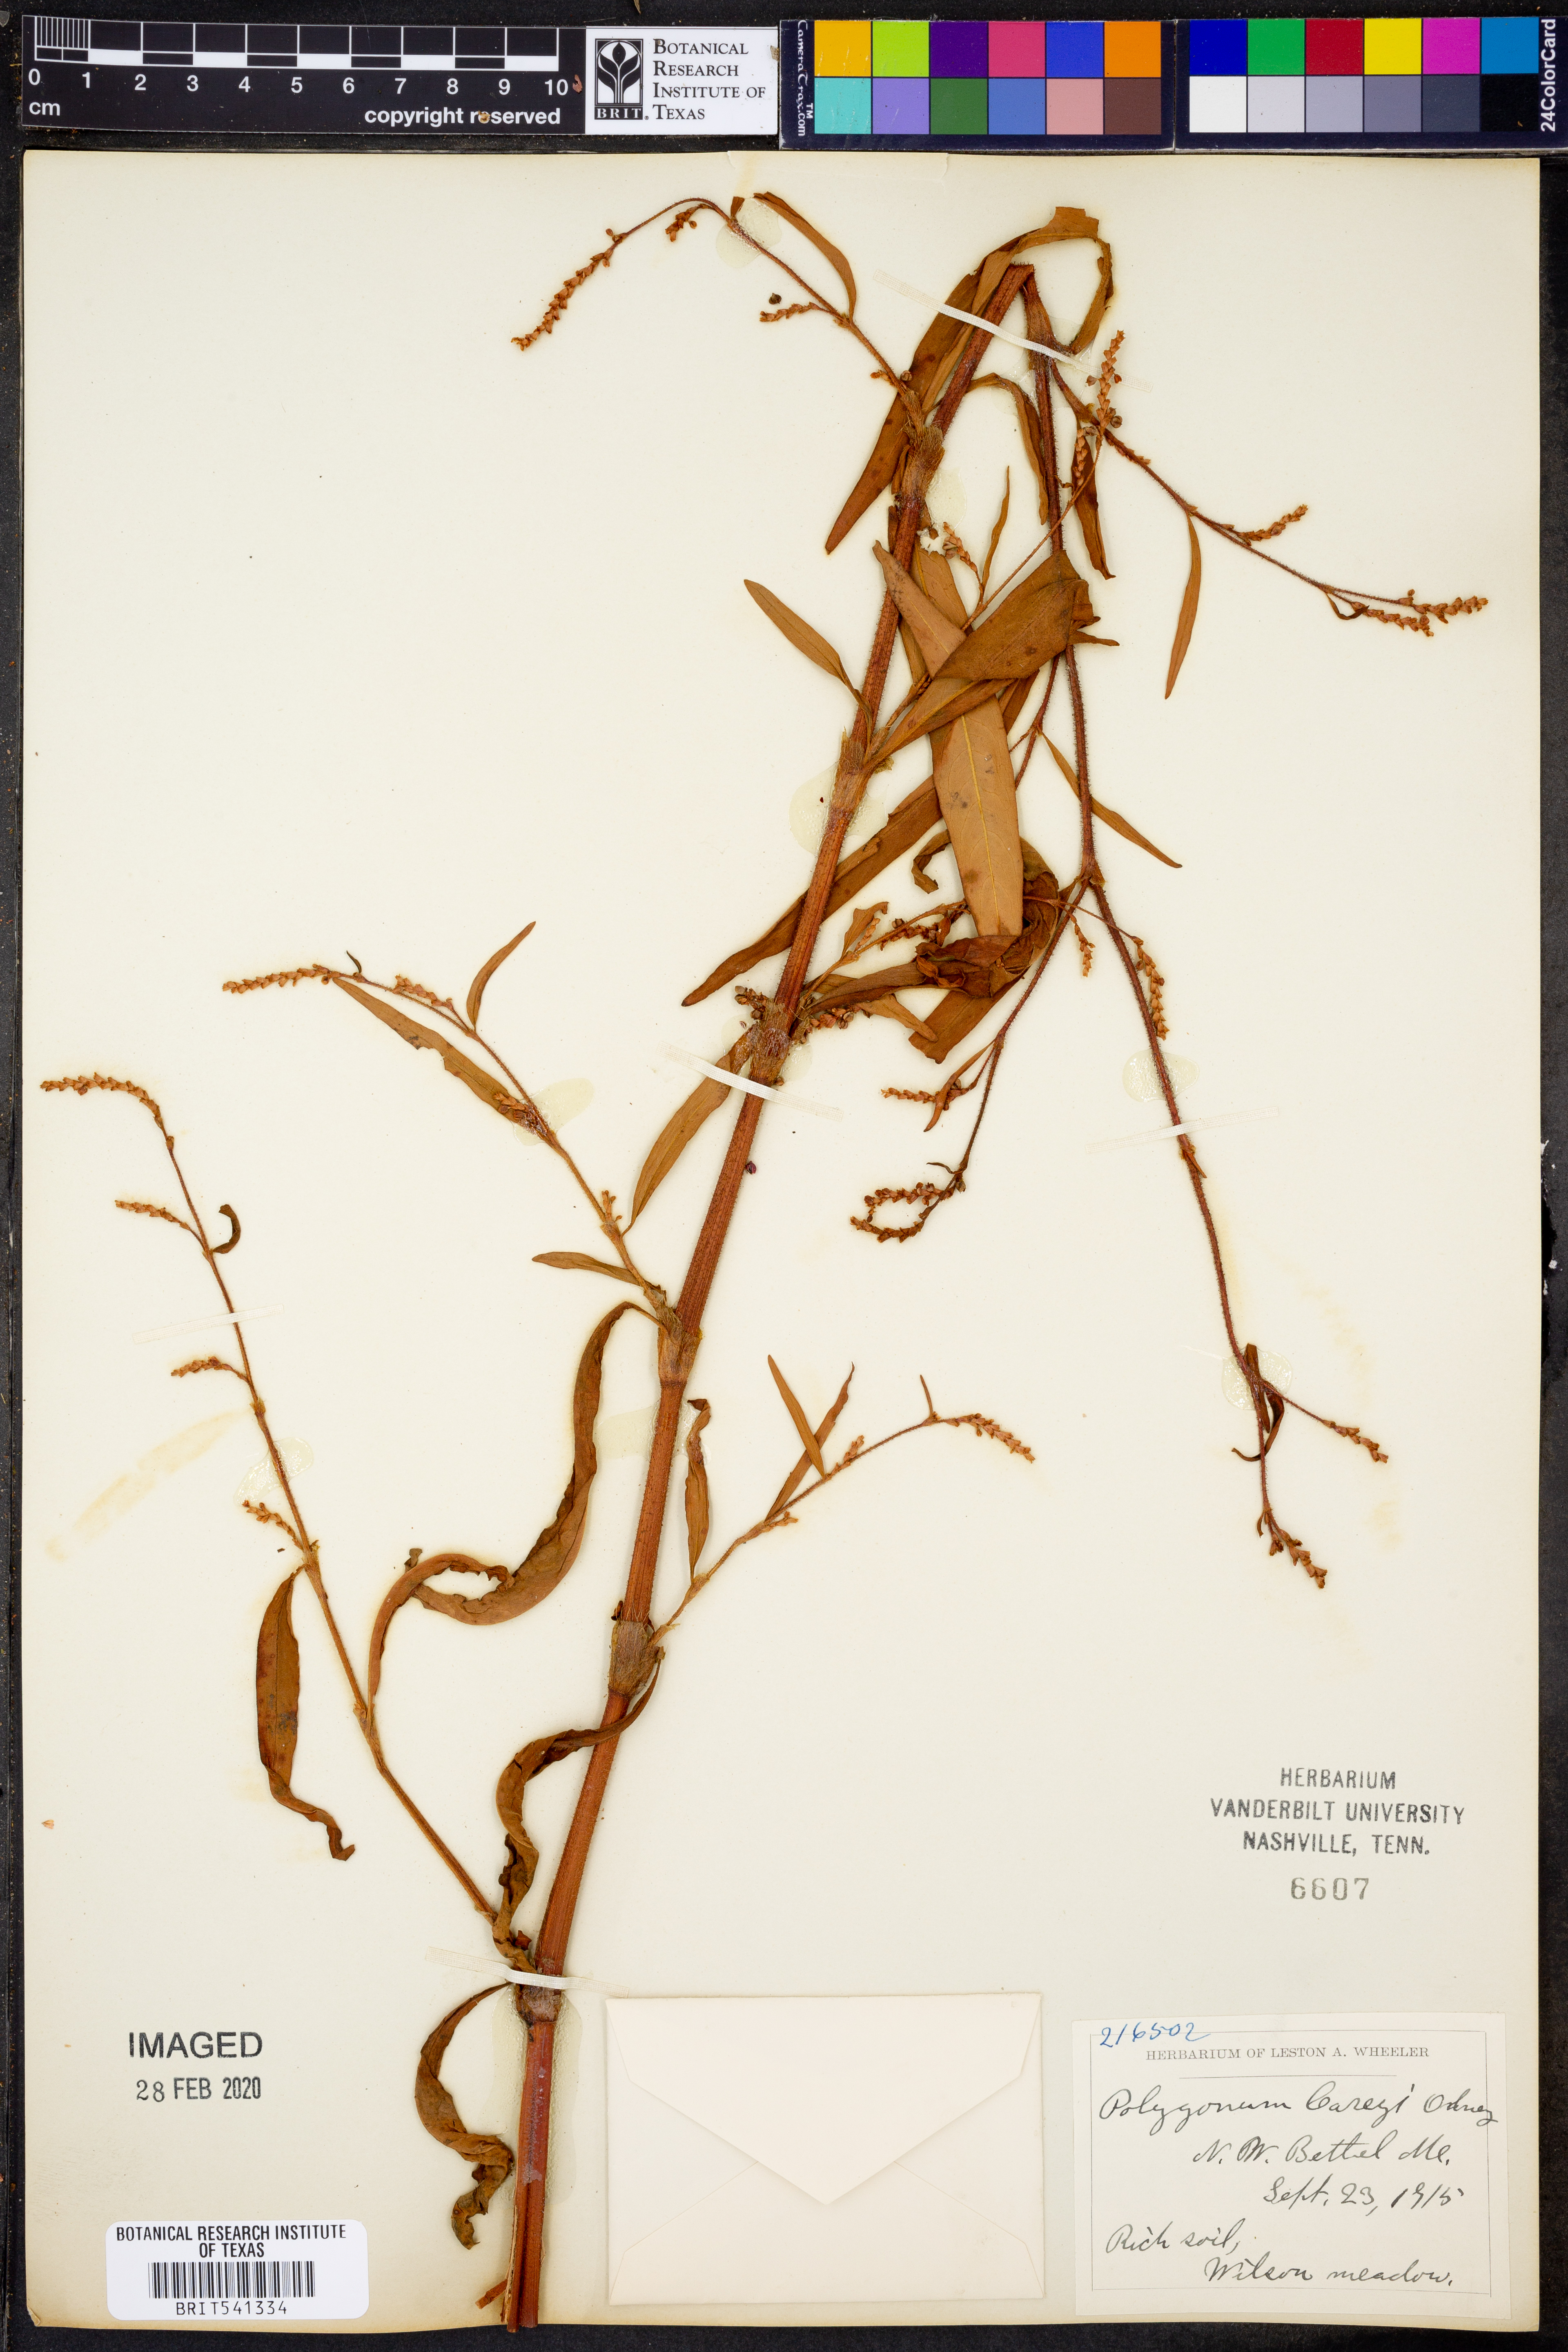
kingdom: Plantae
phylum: Tracheophyta
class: Magnoliopsida
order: Caryophyllales
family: Polygonaceae
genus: Persicaria
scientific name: Persicaria careyi
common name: Carey's smartweed
